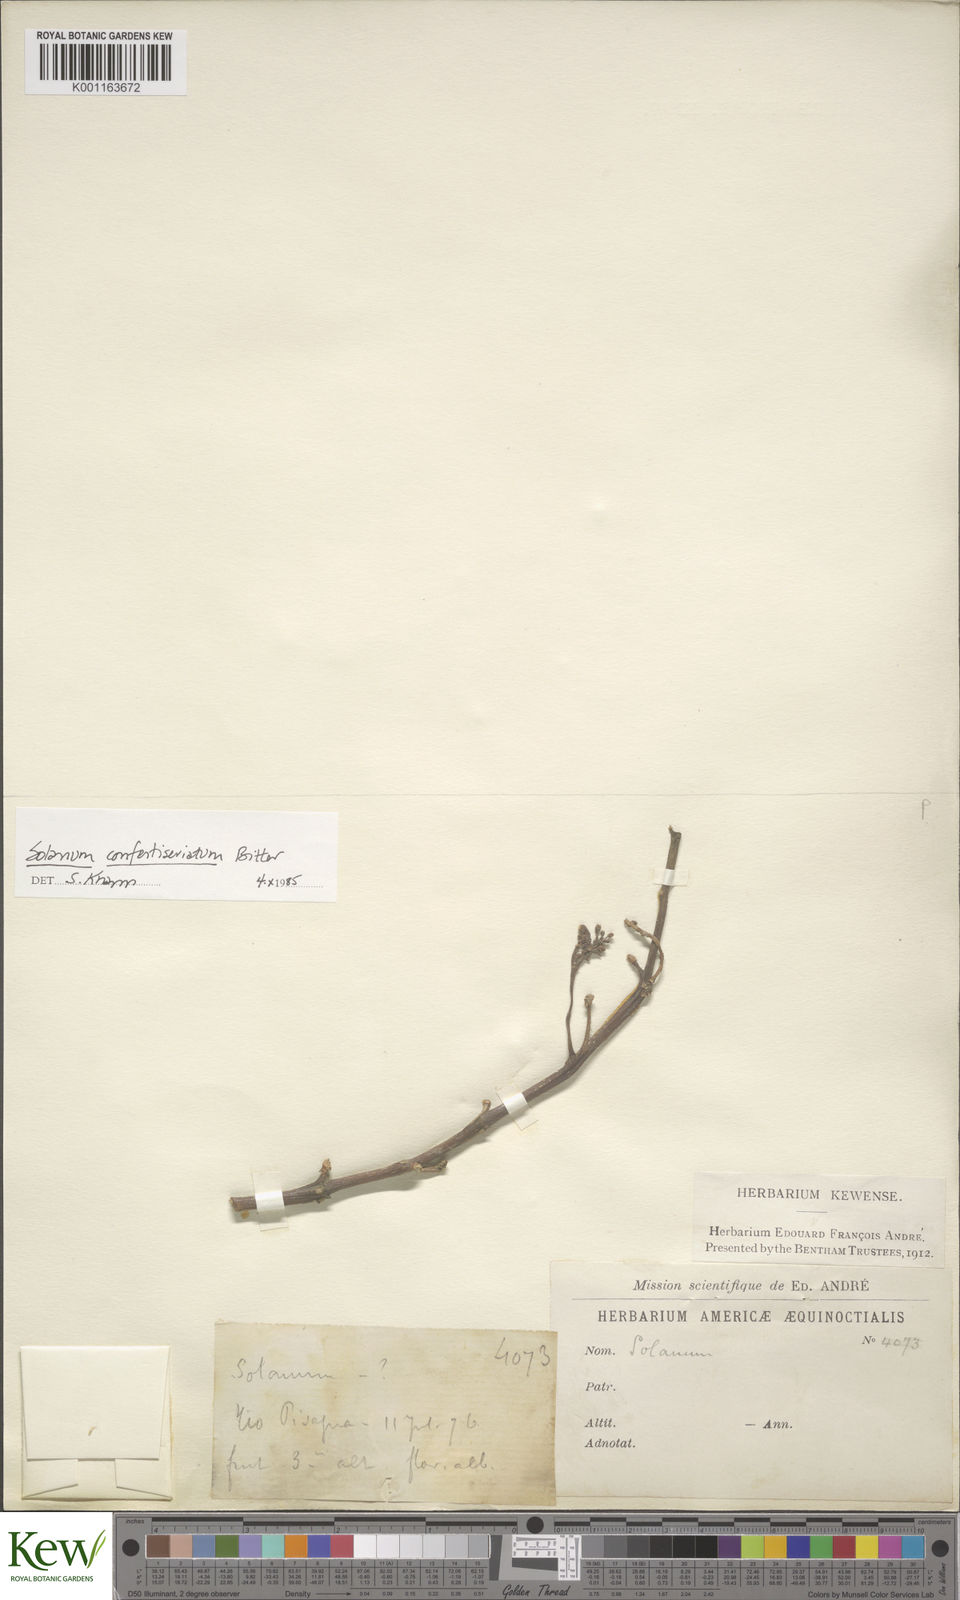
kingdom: Plantae
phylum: Tracheophyta
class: Magnoliopsida
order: Solanales
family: Solanaceae
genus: Solanum
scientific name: Solanum confertiseriatum
